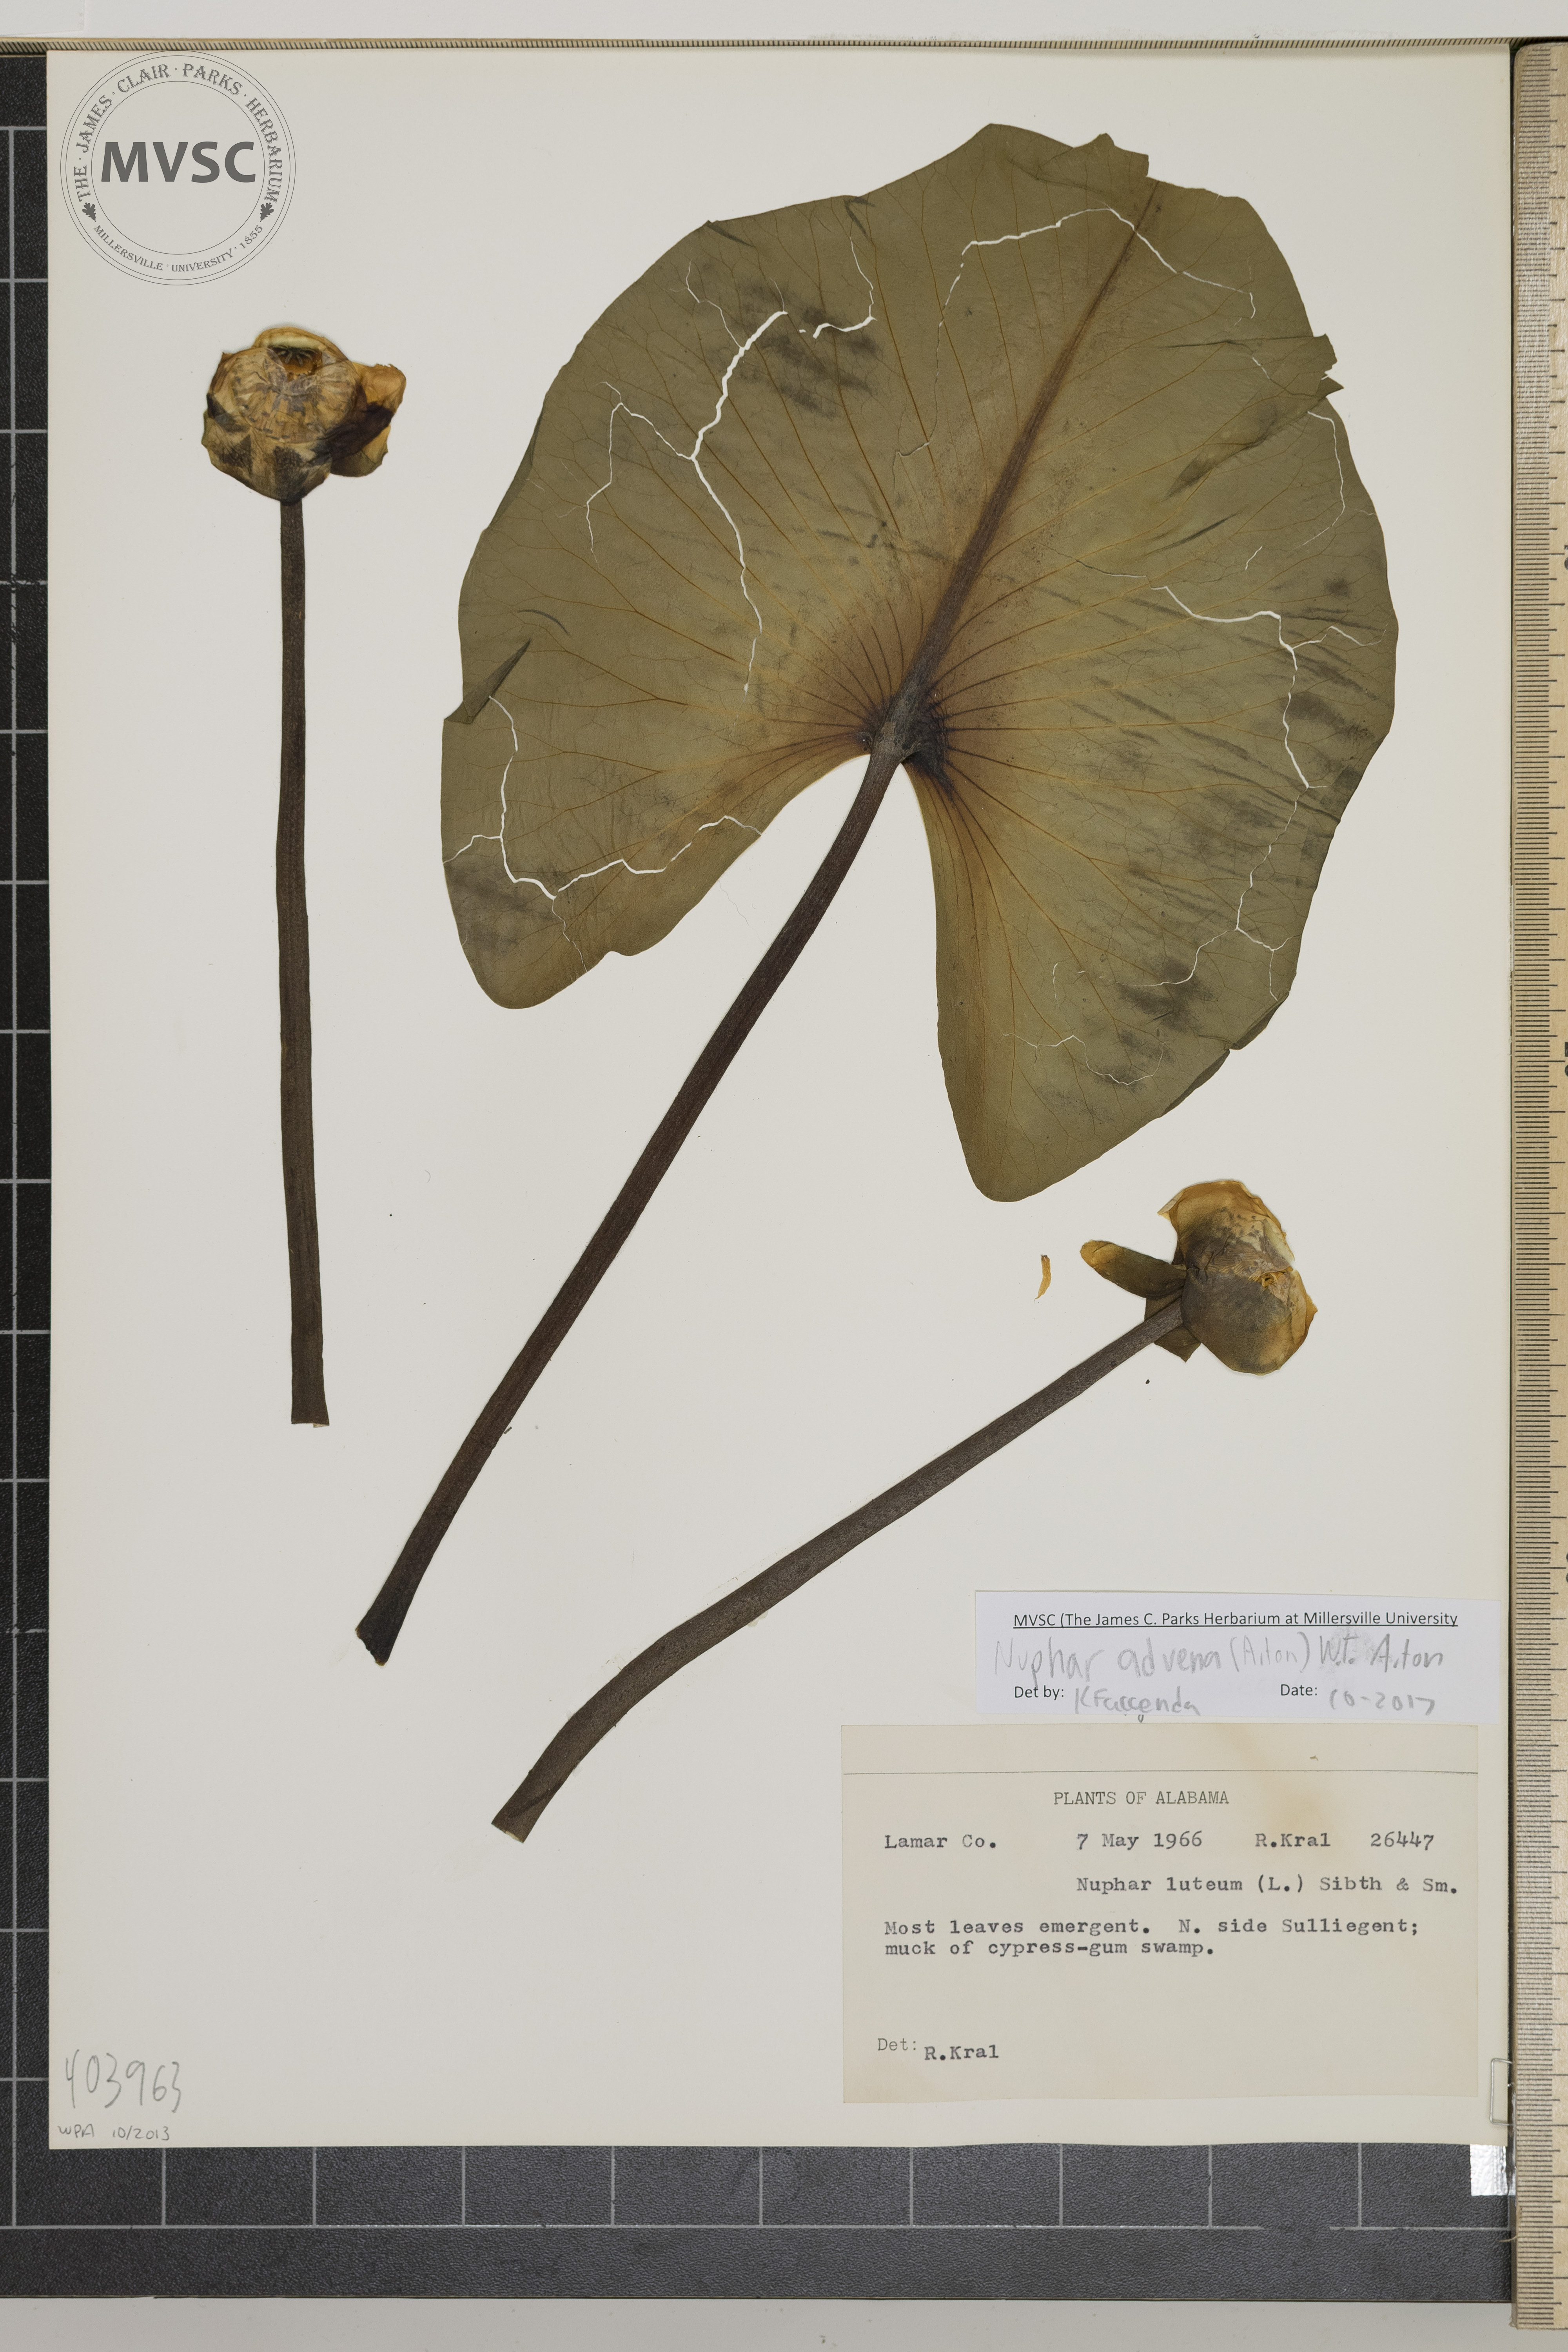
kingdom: Plantae
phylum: Tracheophyta
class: Magnoliopsida
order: Nymphaeales
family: Nymphaeaceae
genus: Nuphar
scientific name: Nuphar advena
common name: Spatter-dock
